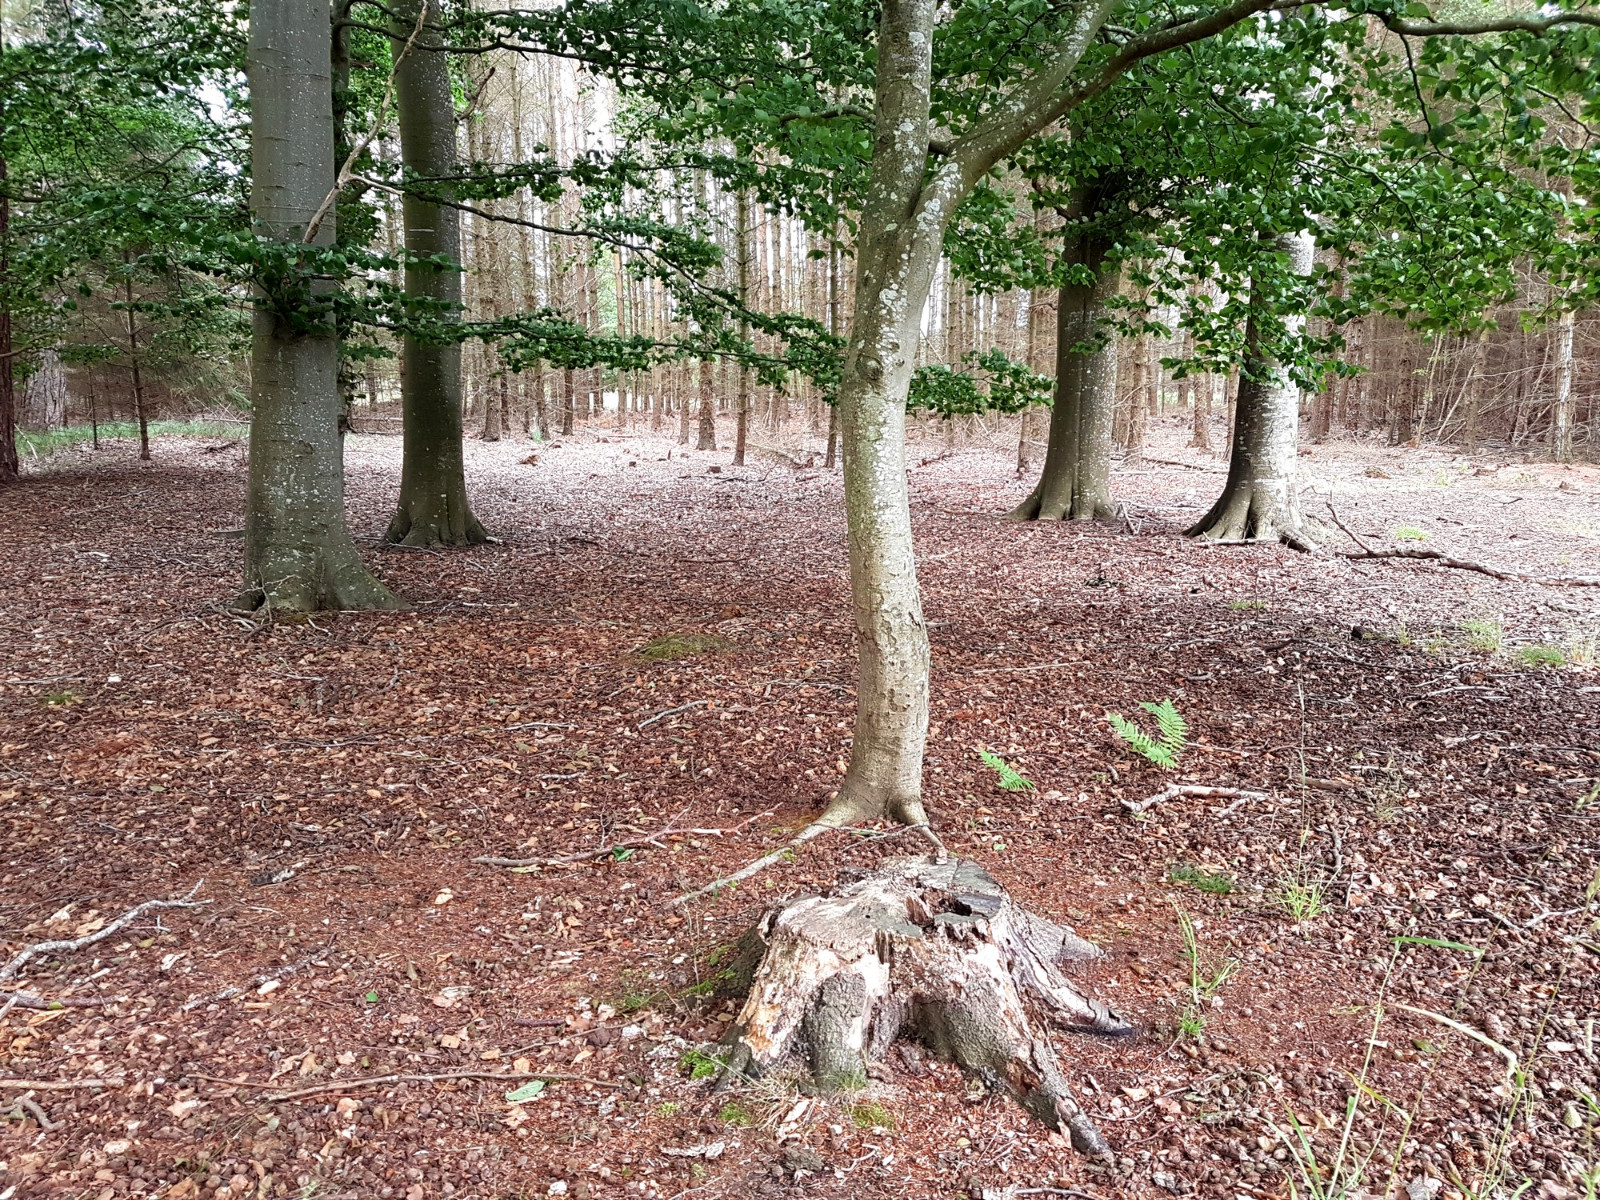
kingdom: Fungi
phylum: Ascomycota
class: Sordariomycetes
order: Xylariales
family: Xylariaceae
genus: Xylaria
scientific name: Xylaria polymorpha
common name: kølle-stødsvamp
